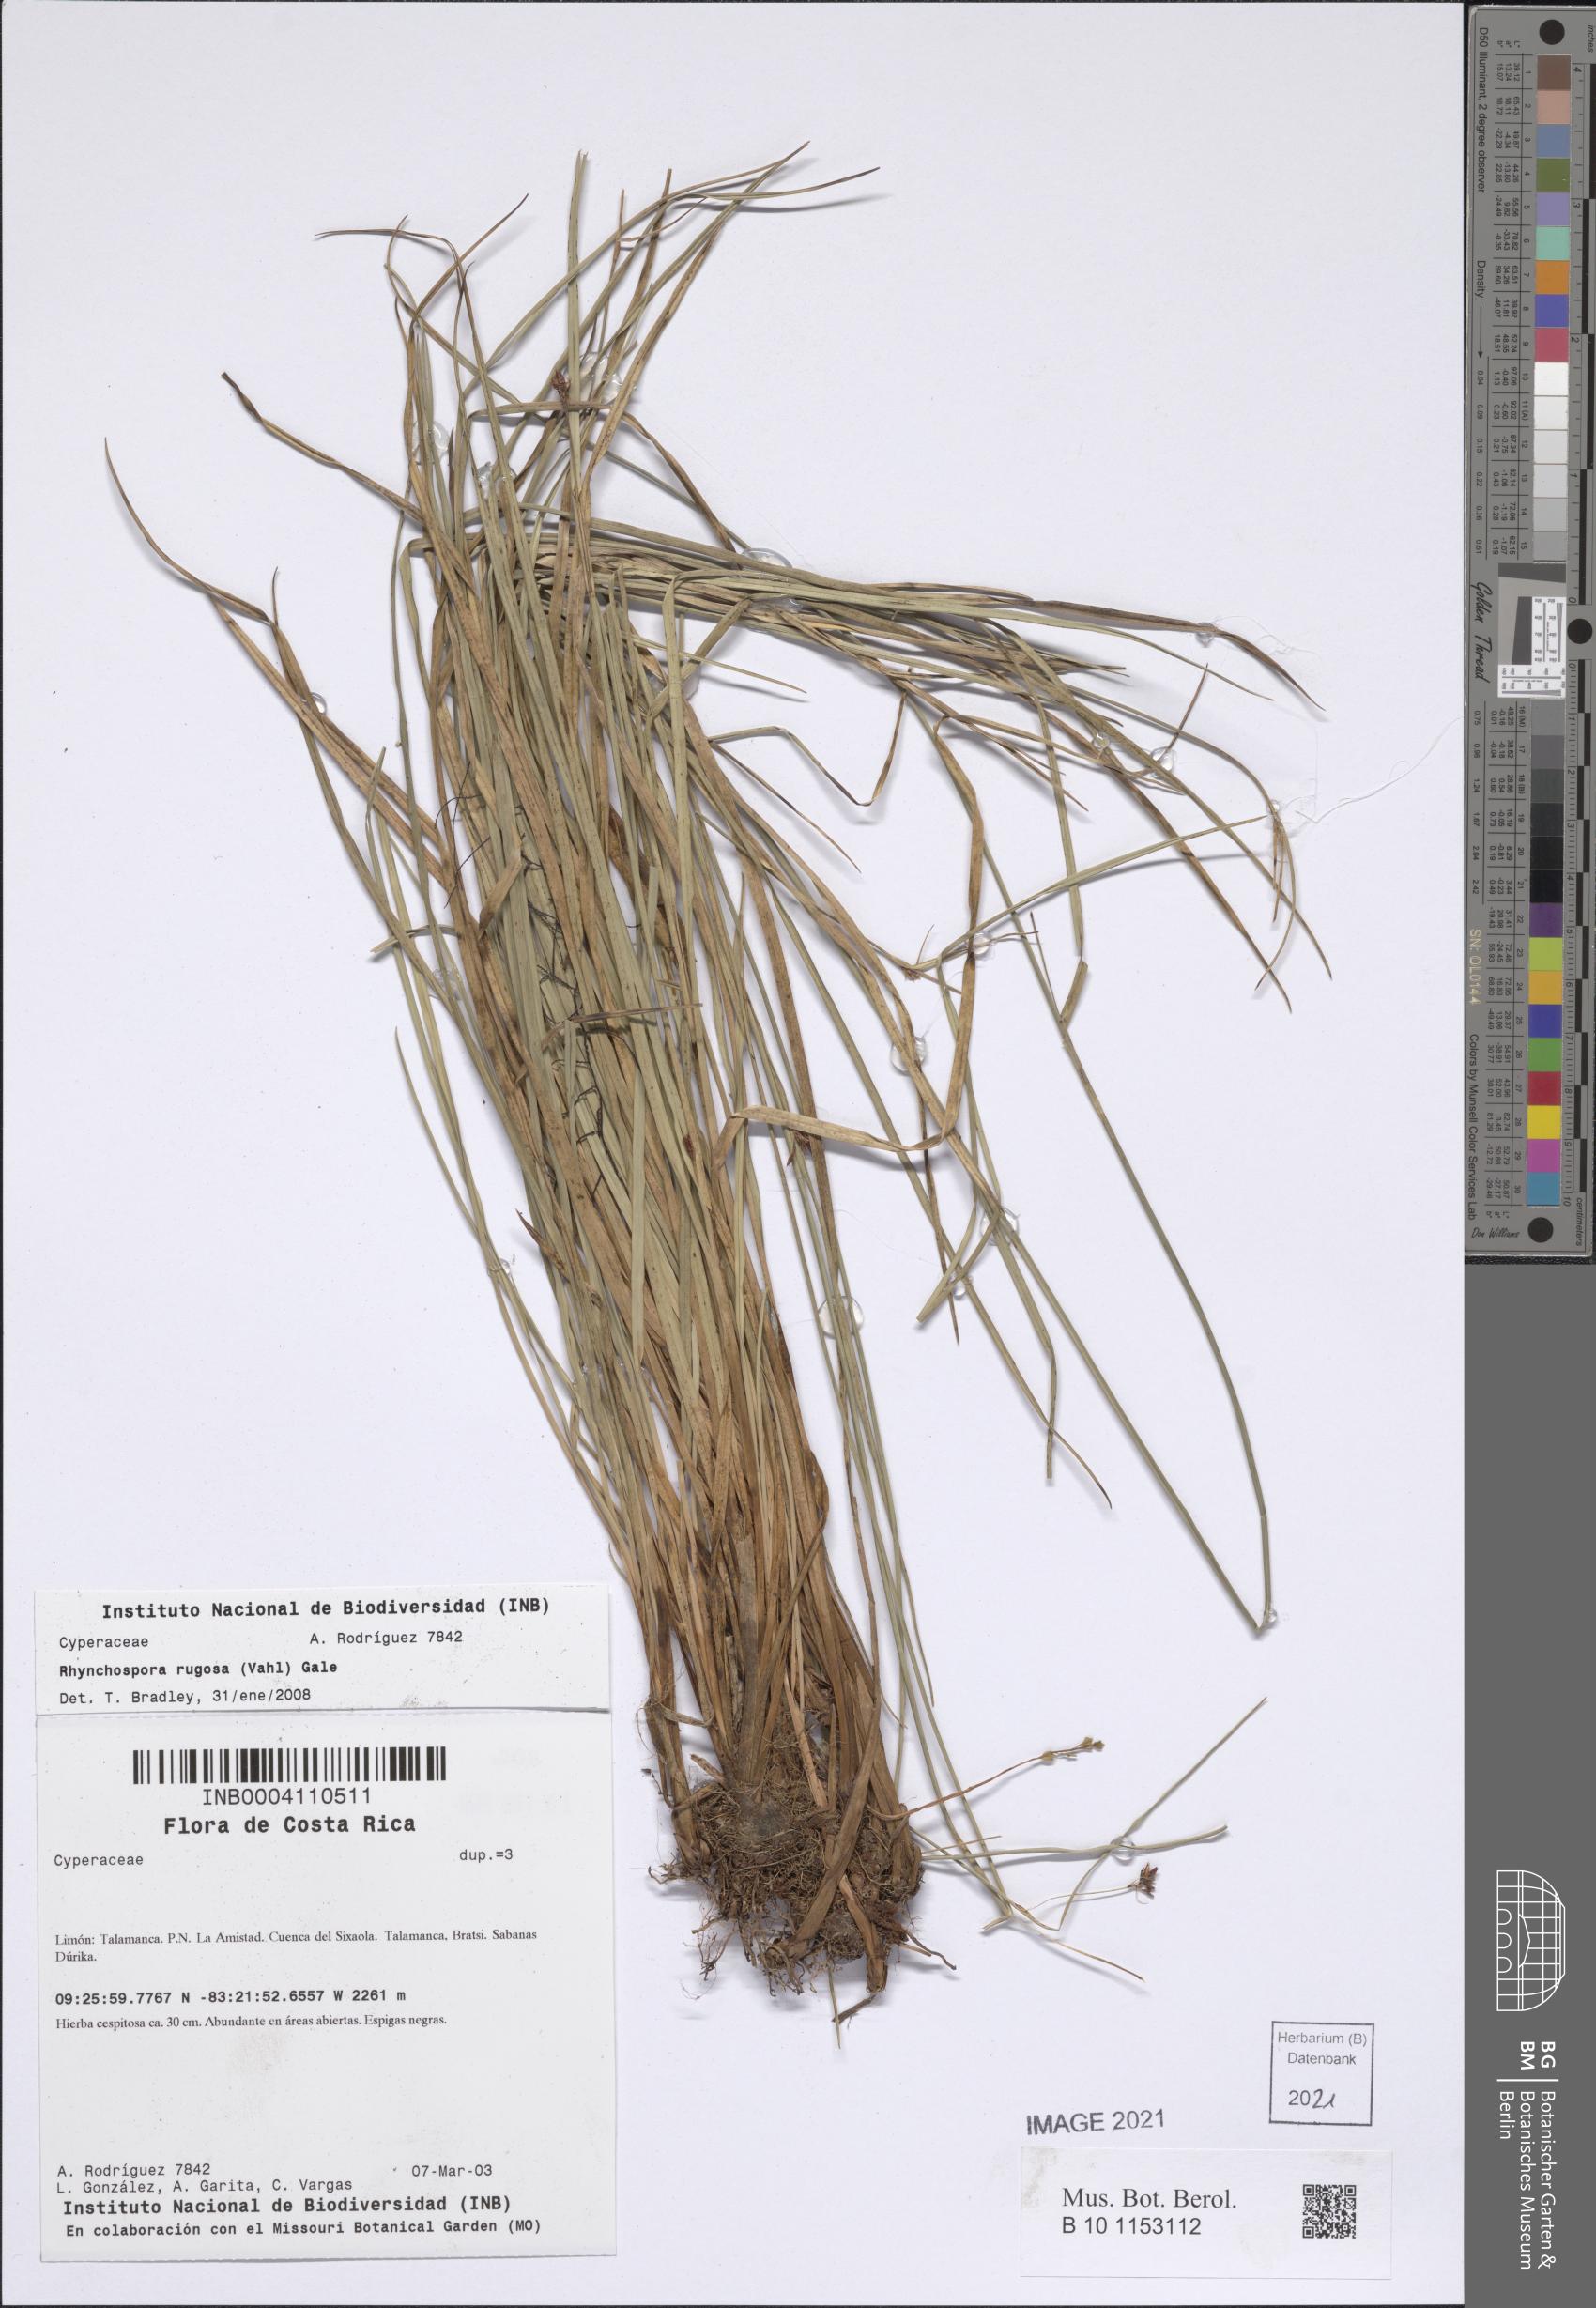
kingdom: Plantae
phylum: Tracheophyta
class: Liliopsida
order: Poales
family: Cyperaceae
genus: Rhynchospora
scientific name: Rhynchospora rugosa
